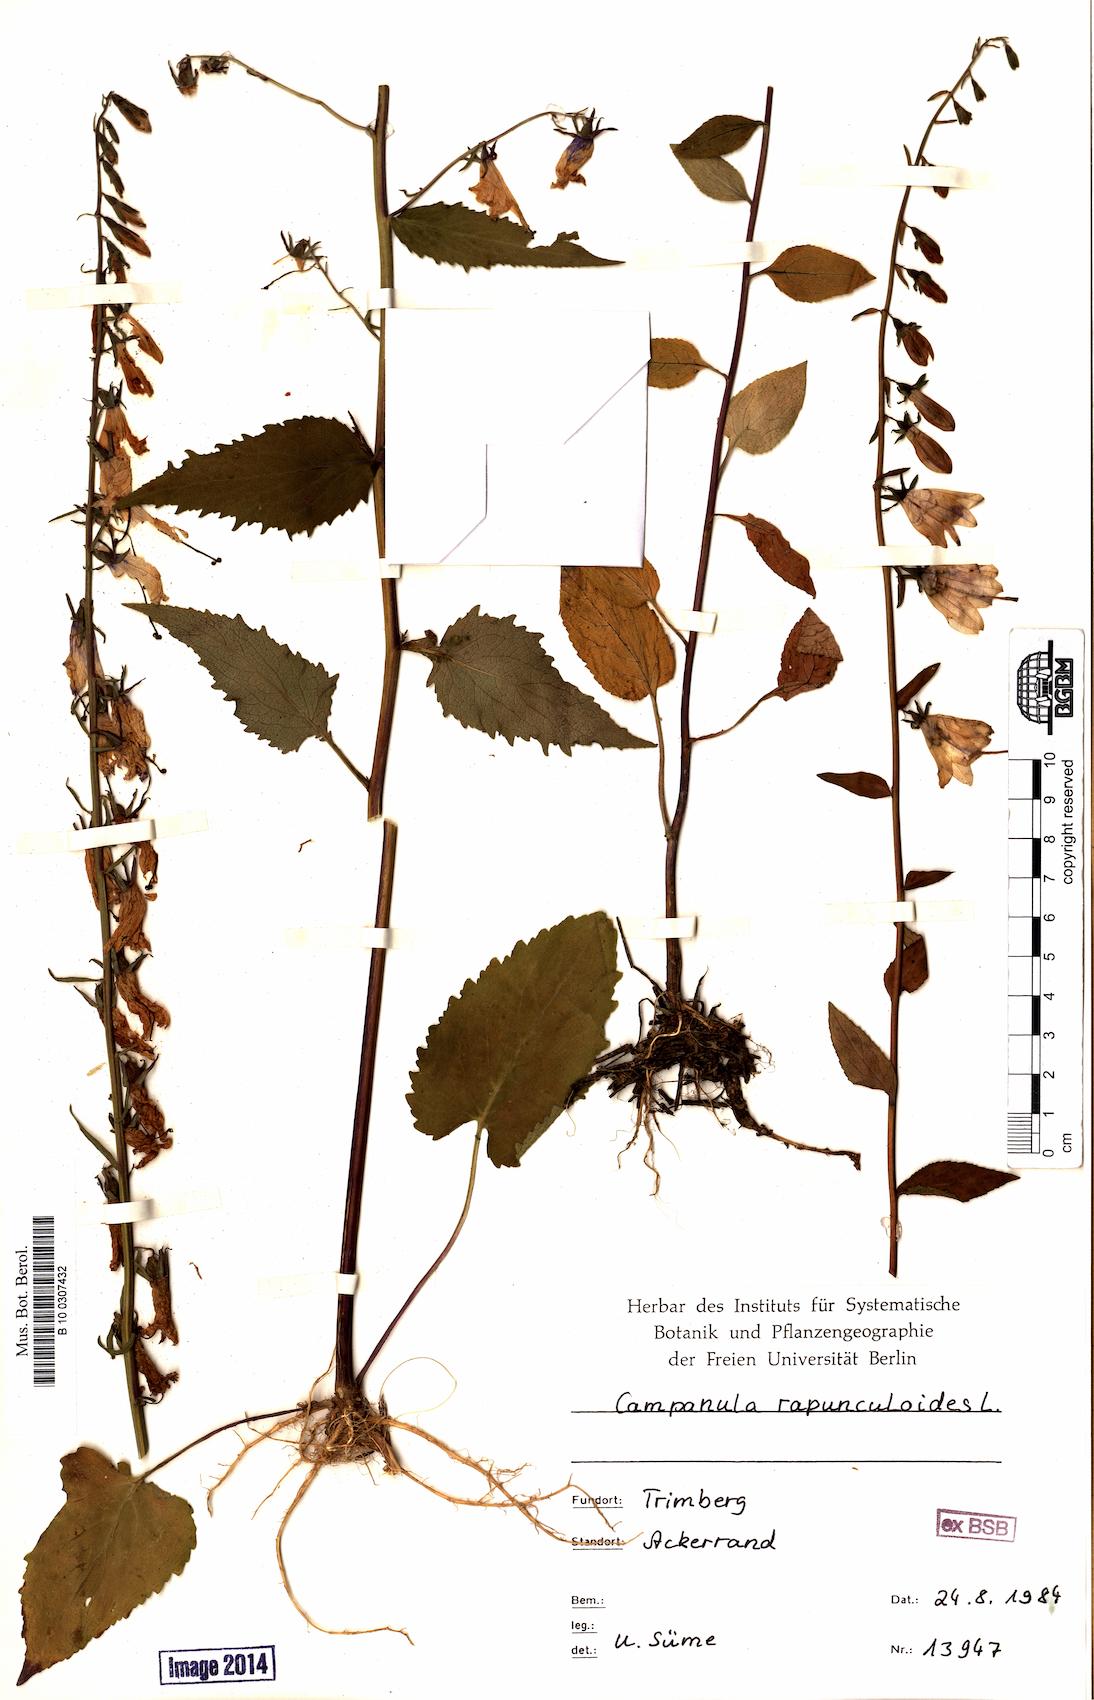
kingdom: Plantae
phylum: Tracheophyta
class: Magnoliopsida
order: Asterales
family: Campanulaceae
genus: Campanula
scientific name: Campanula rapunculoides
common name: Creeping bellflower
